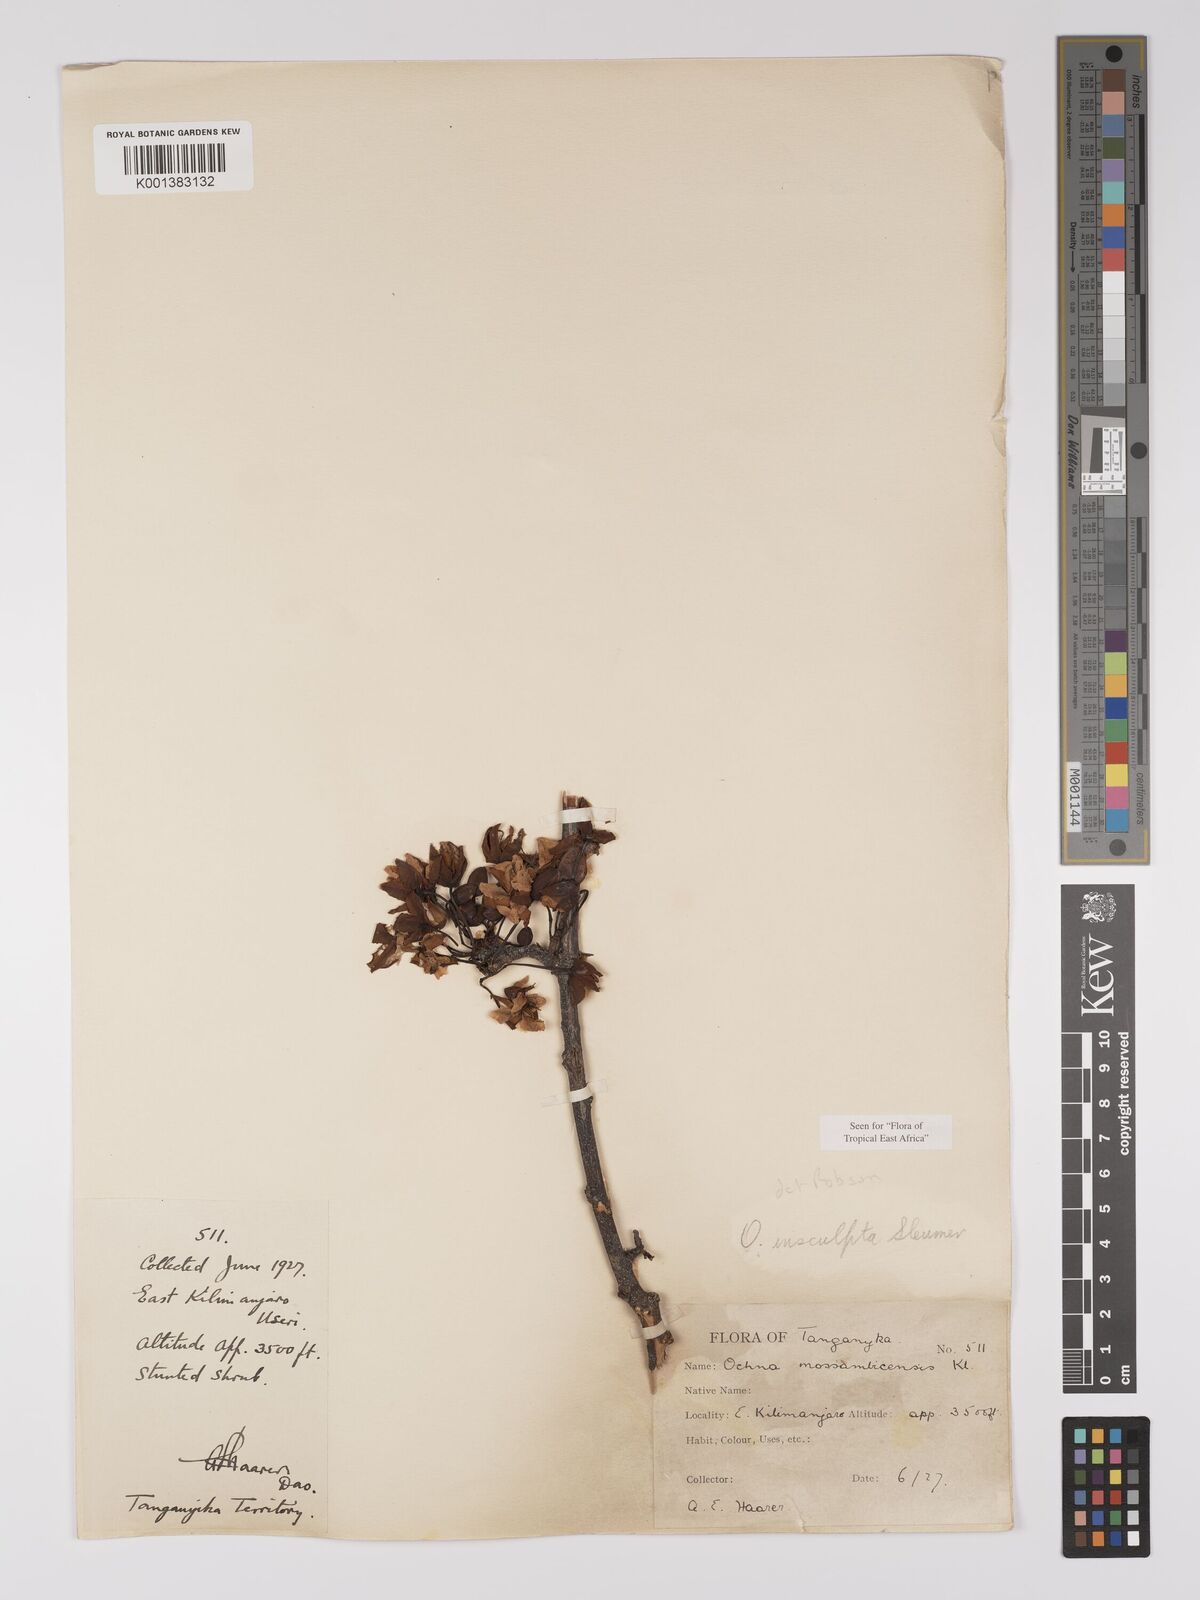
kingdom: Plantae
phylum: Tracheophyta
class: Magnoliopsida
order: Malpighiales
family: Ochnaceae
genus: Ochna
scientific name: Ochna insculpta
